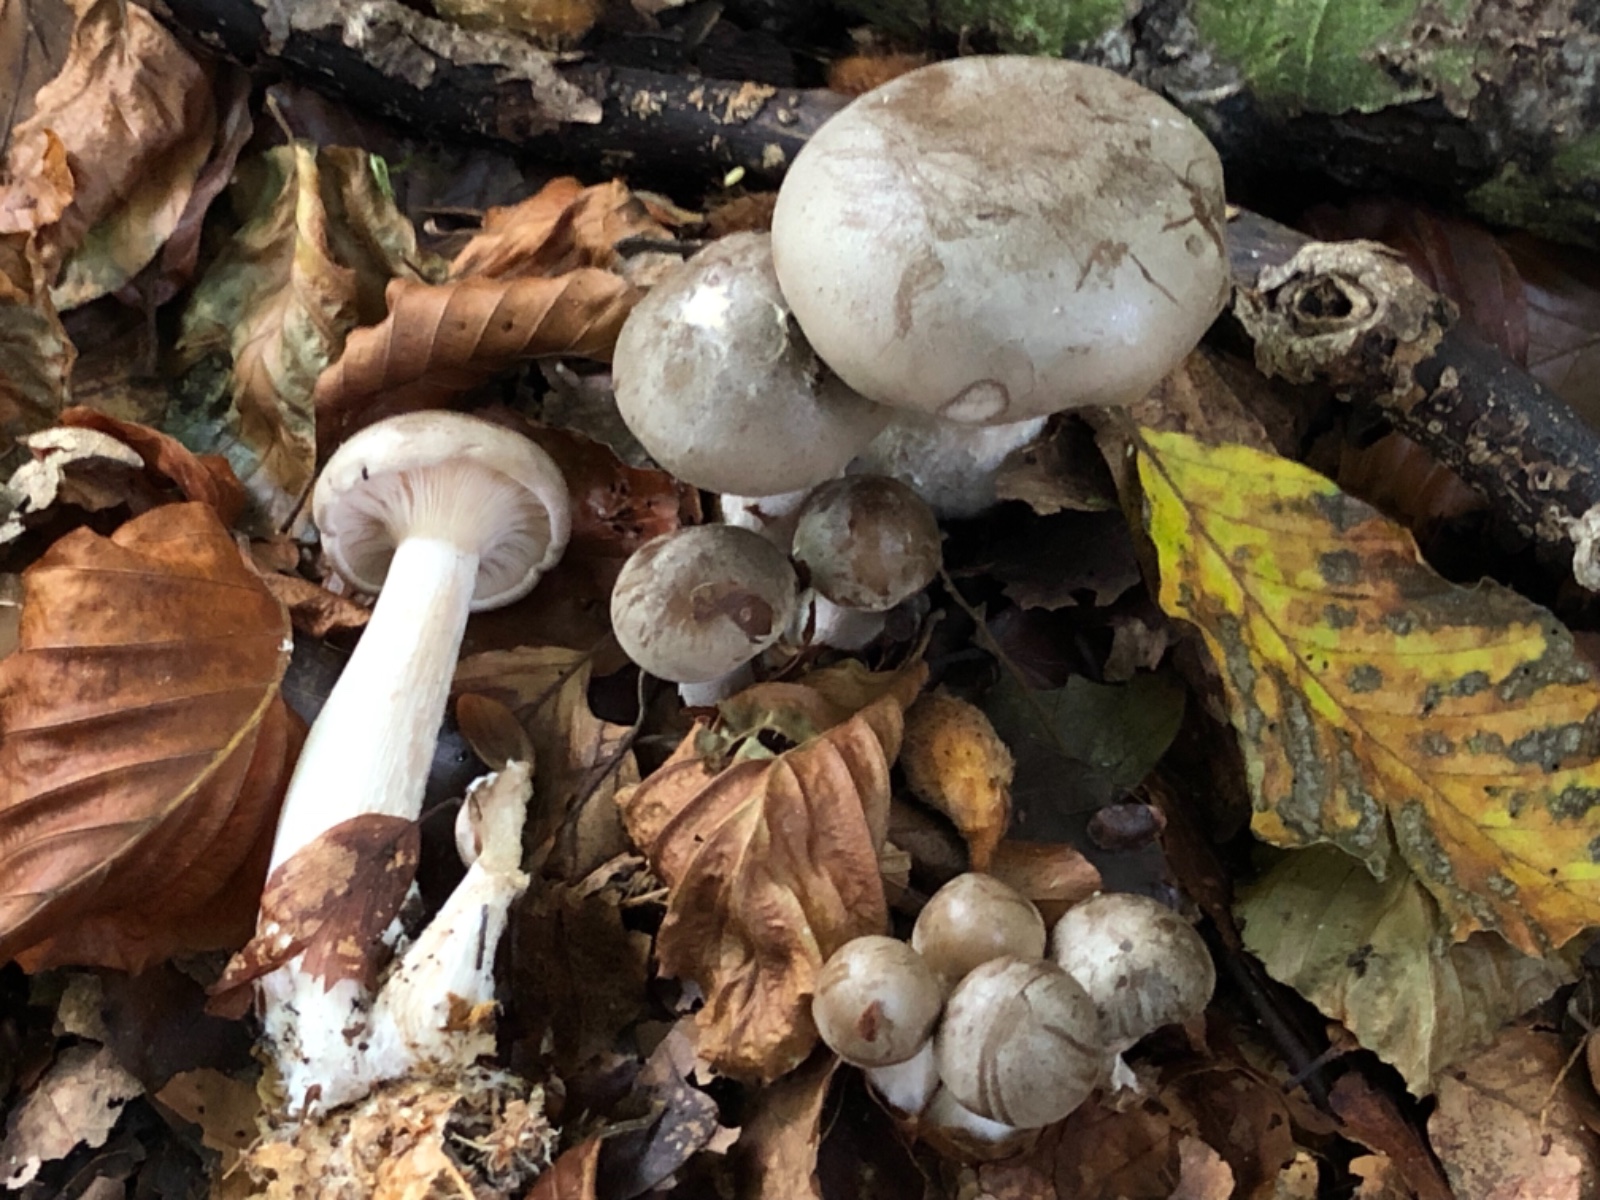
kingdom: Fungi
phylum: Basidiomycota
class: Agaricomycetes
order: Agaricales
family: Tricholomataceae
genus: Clitocybe
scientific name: Clitocybe nebularis
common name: tåge-tragthat
